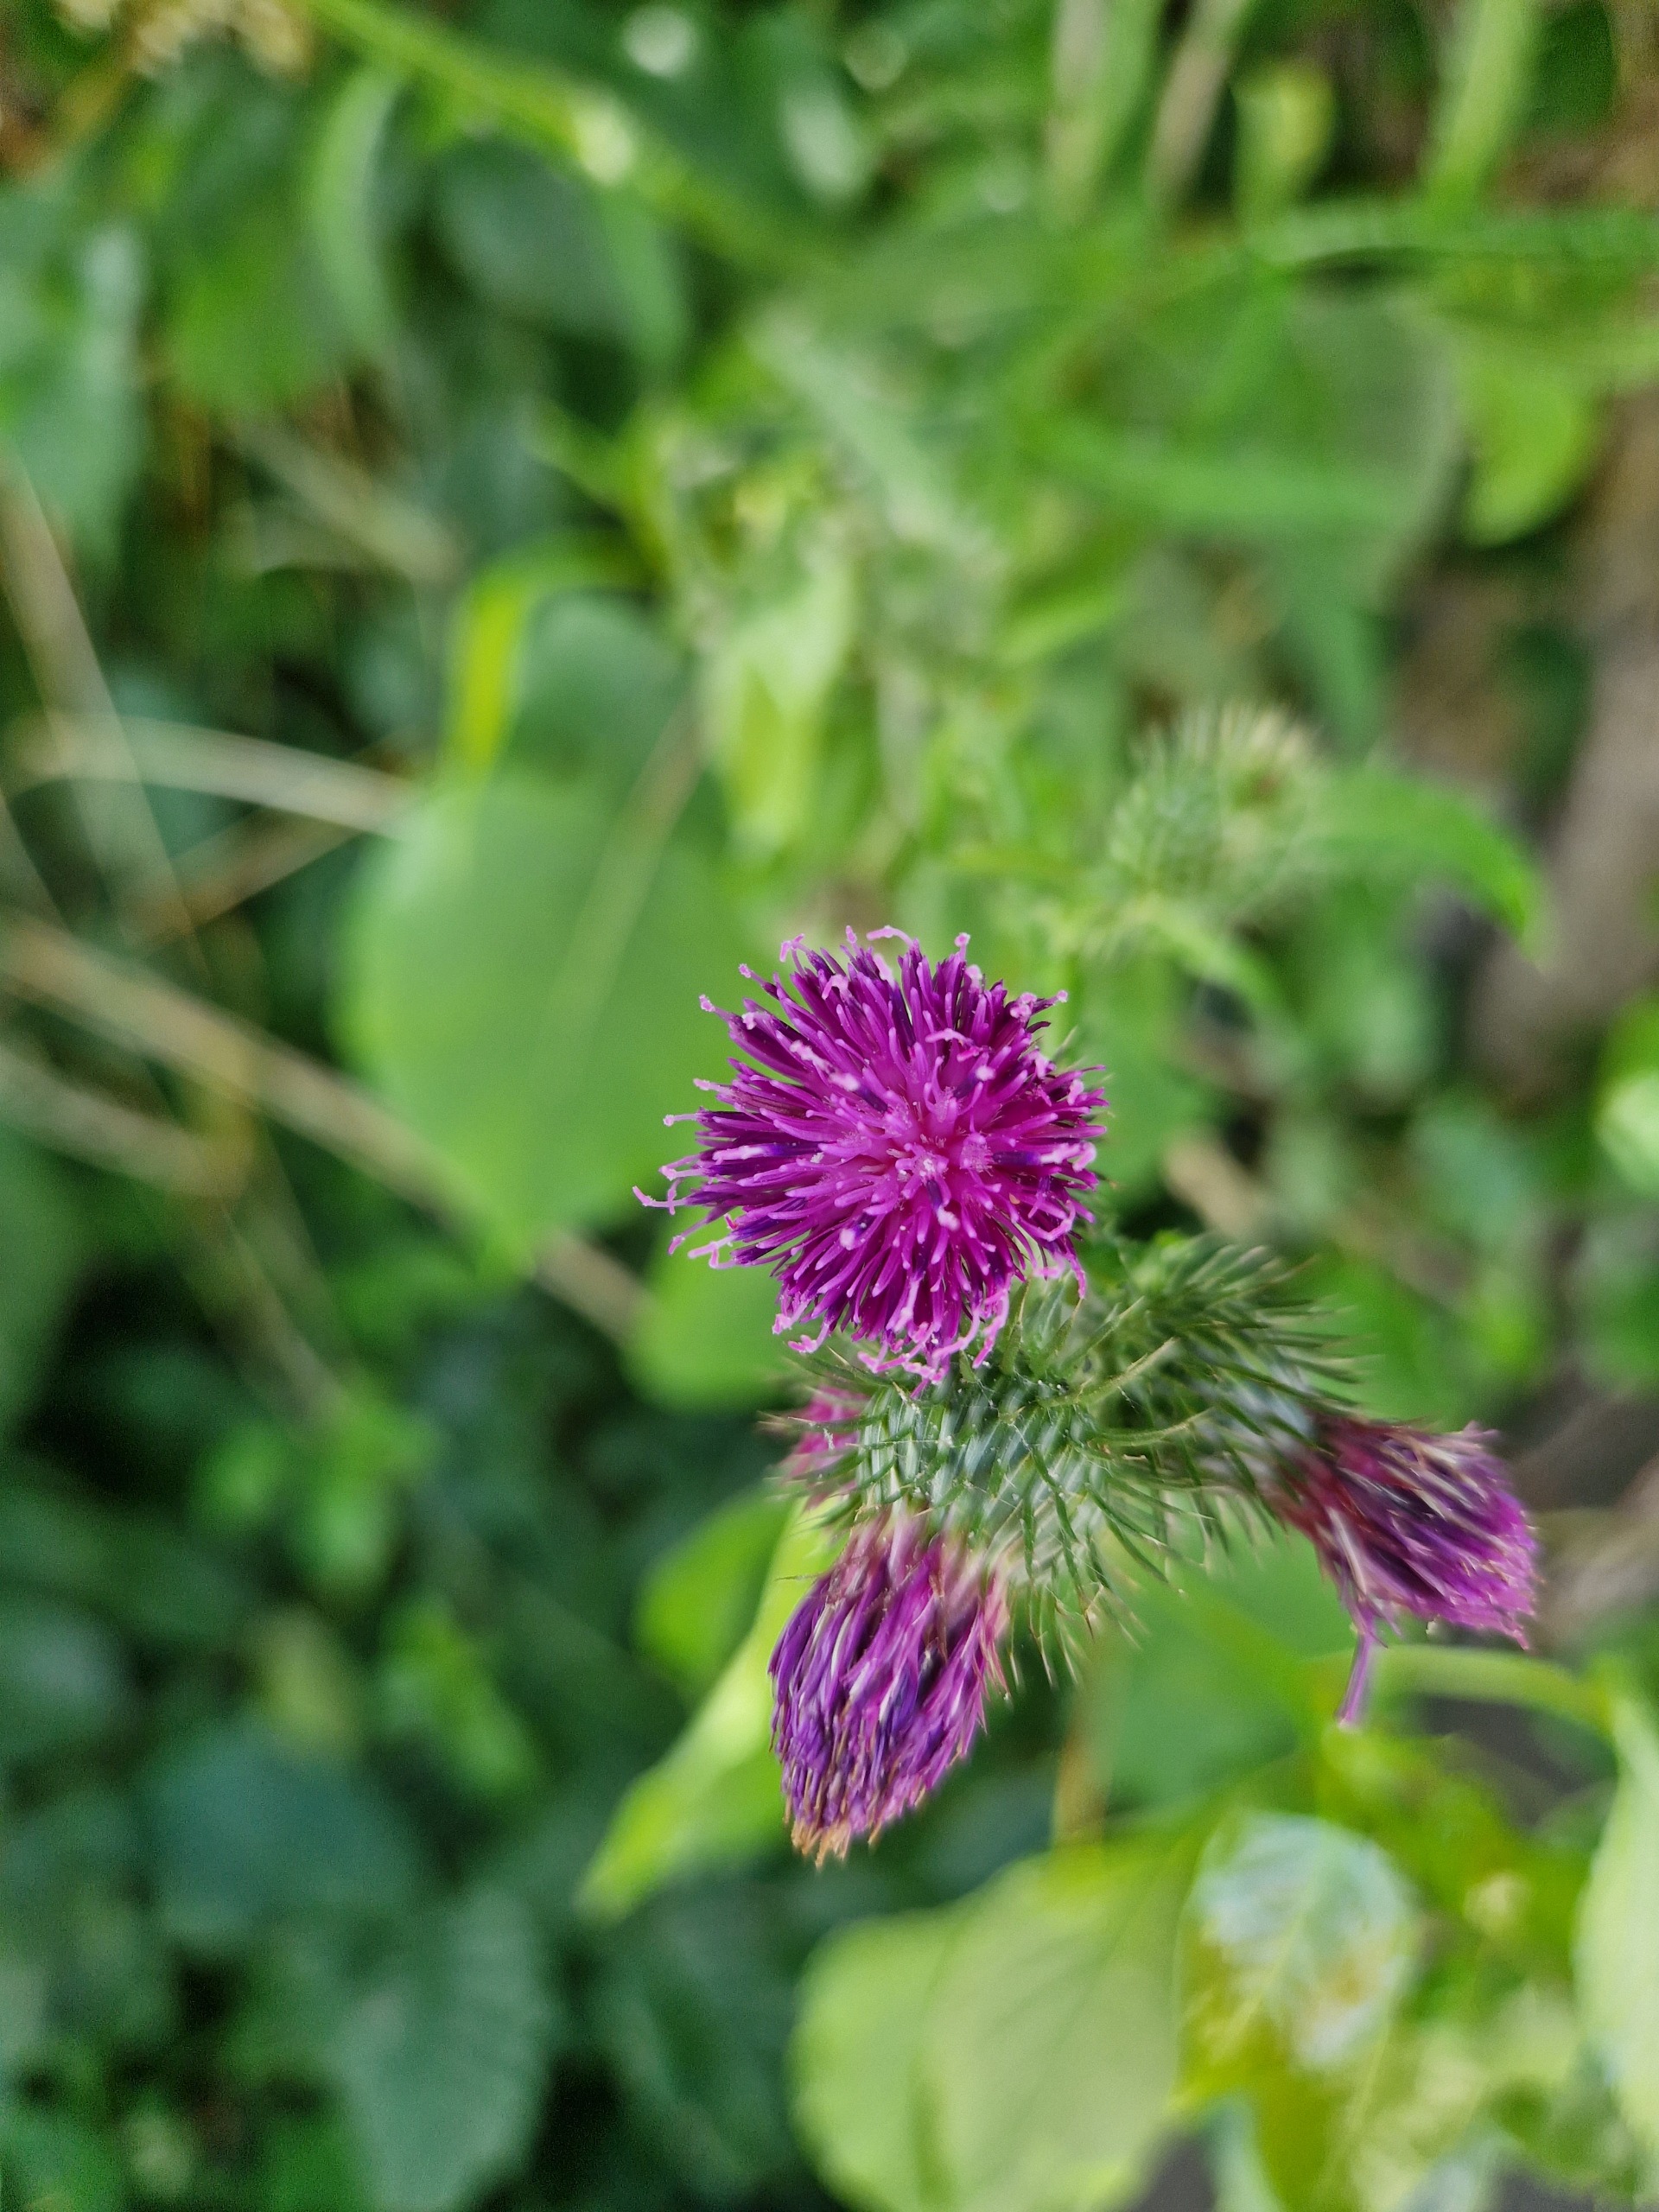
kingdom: Plantae
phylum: Tracheophyta
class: Magnoliopsida
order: Asterales
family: Asteraceae
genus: Carduus
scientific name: Carduus crispus
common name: Kruset tidsel
